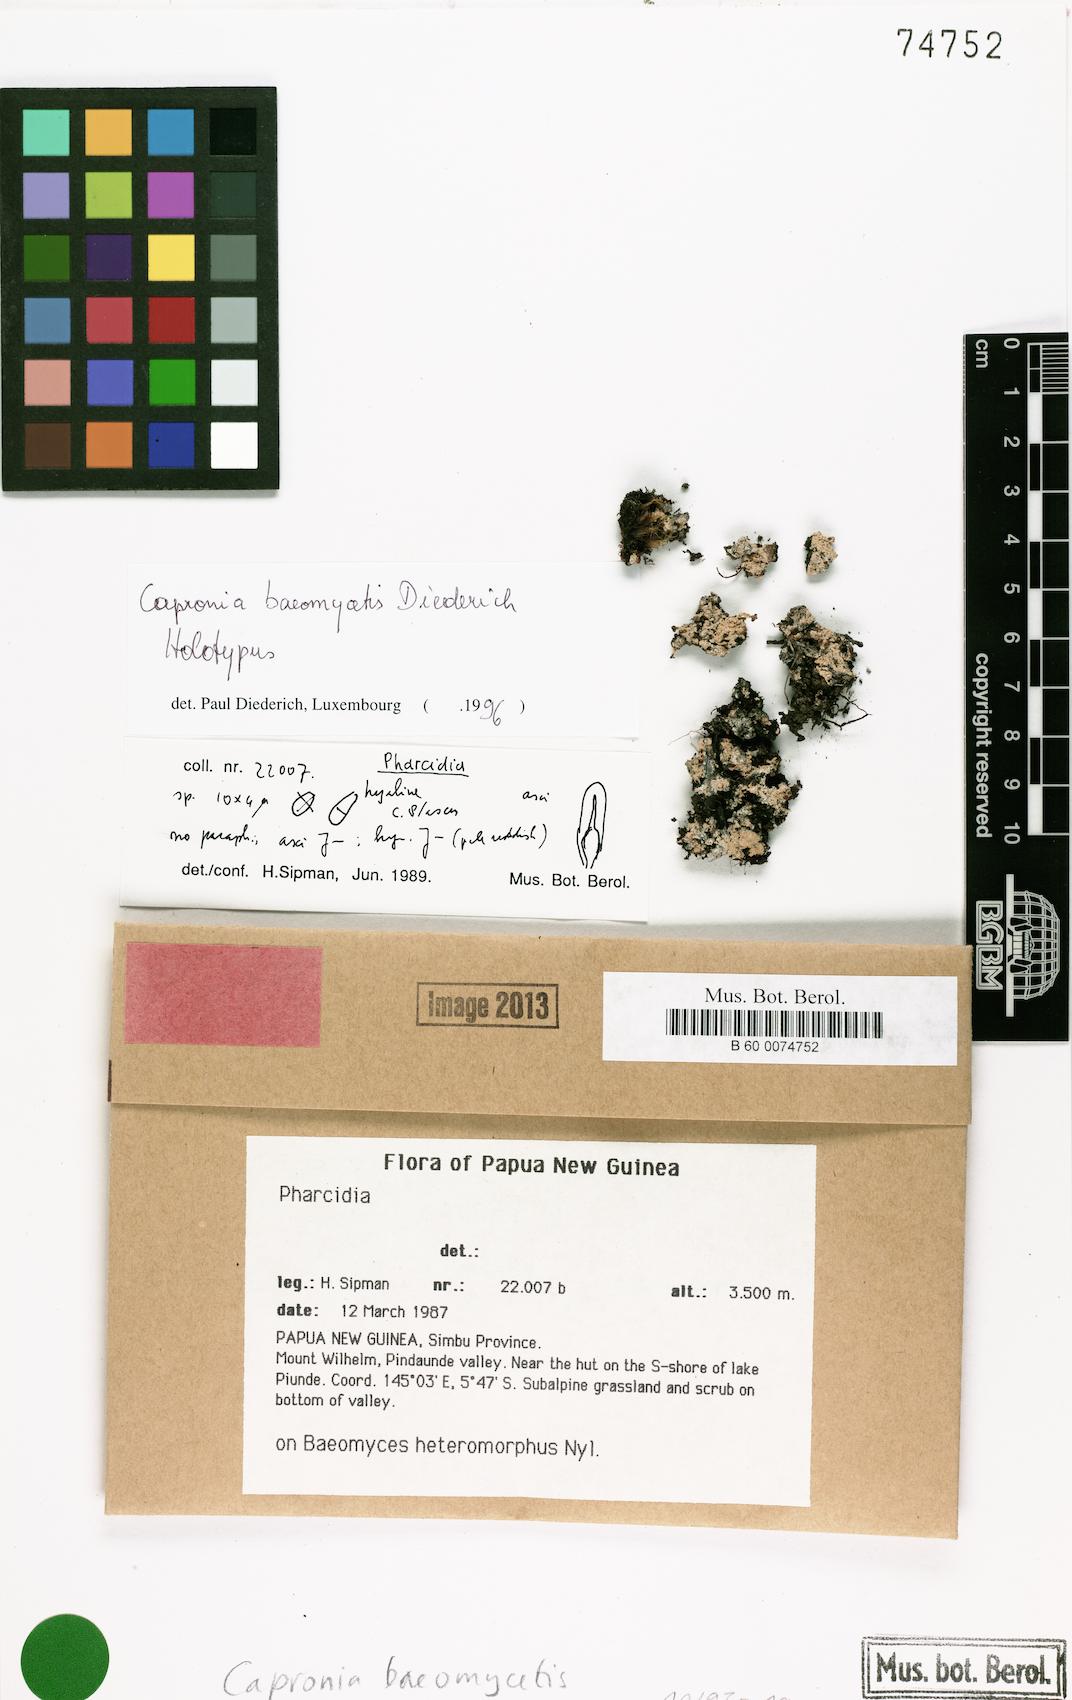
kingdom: Fungi
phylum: Ascomycota
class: Eurotiomycetes
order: Chaetothyriales
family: Herpotrichiellaceae
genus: Capronia
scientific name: Capronia baeomycetis
